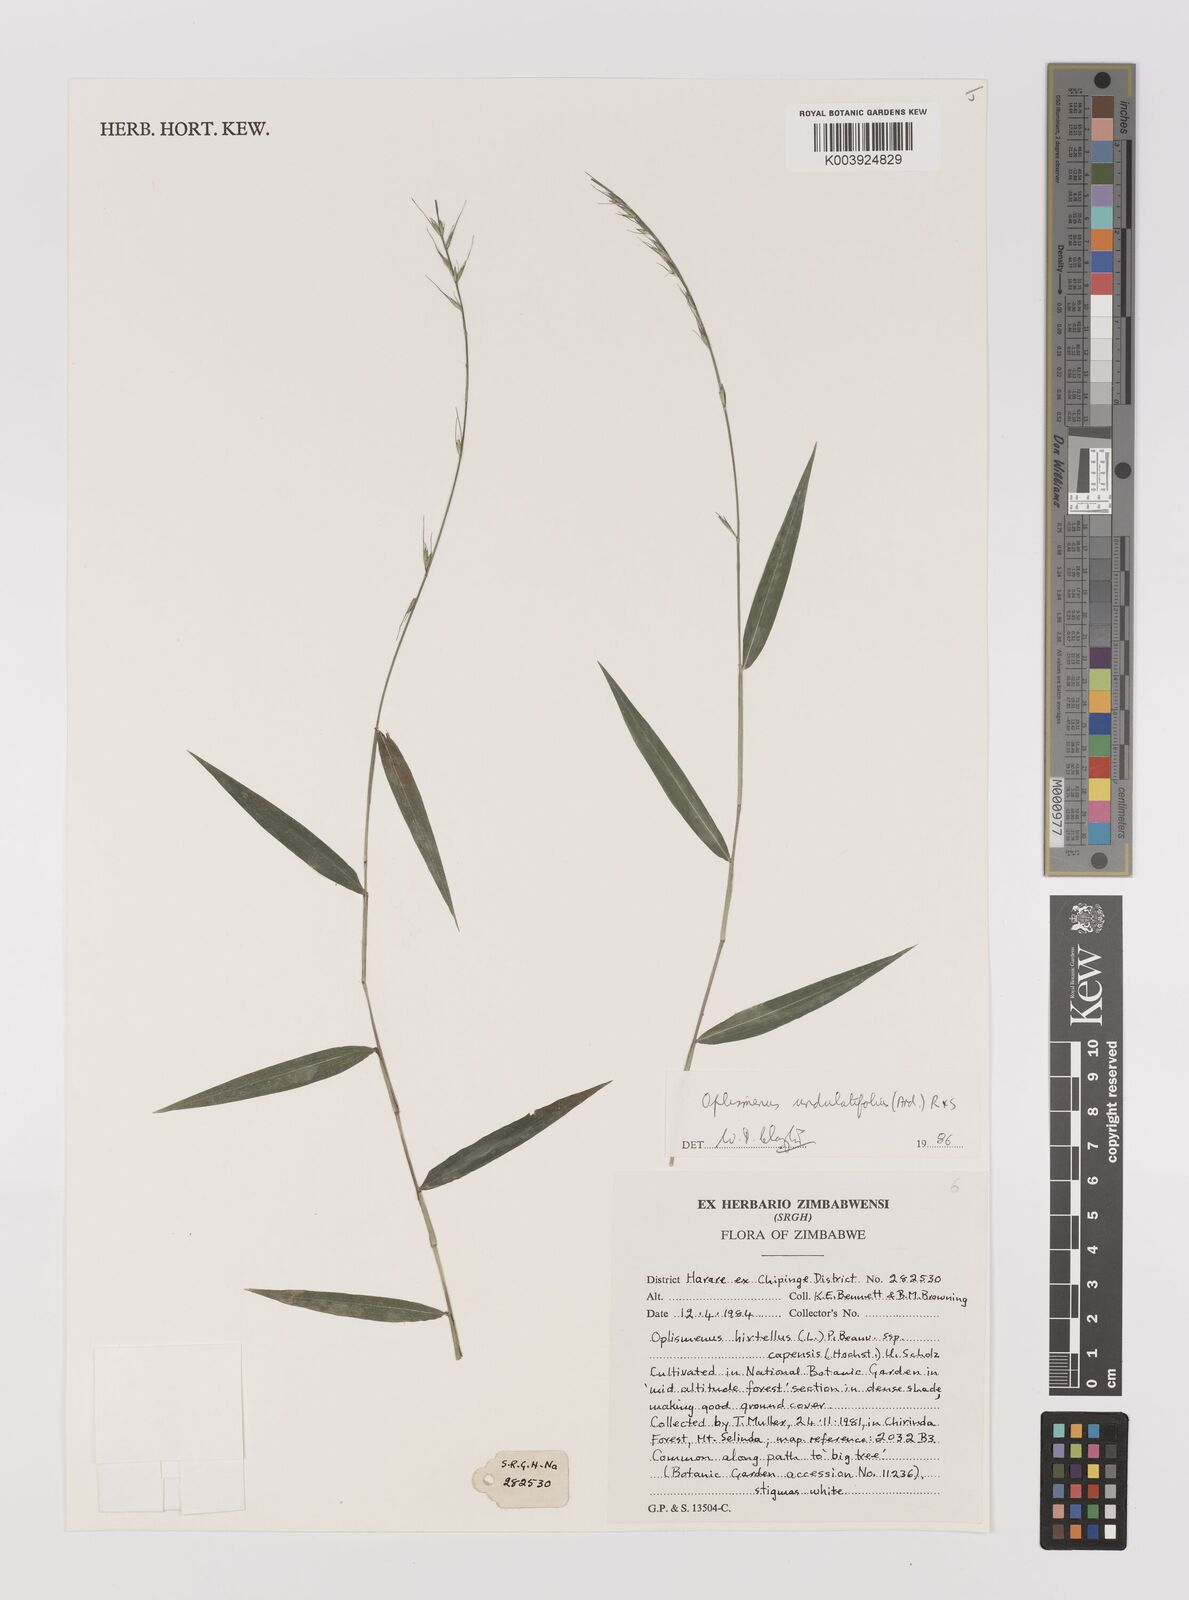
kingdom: Plantae
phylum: Tracheophyta
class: Liliopsida
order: Poales
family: Poaceae
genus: Oplismenus
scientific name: Oplismenus undulatifolius
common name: Wavyleaf basketgrass
